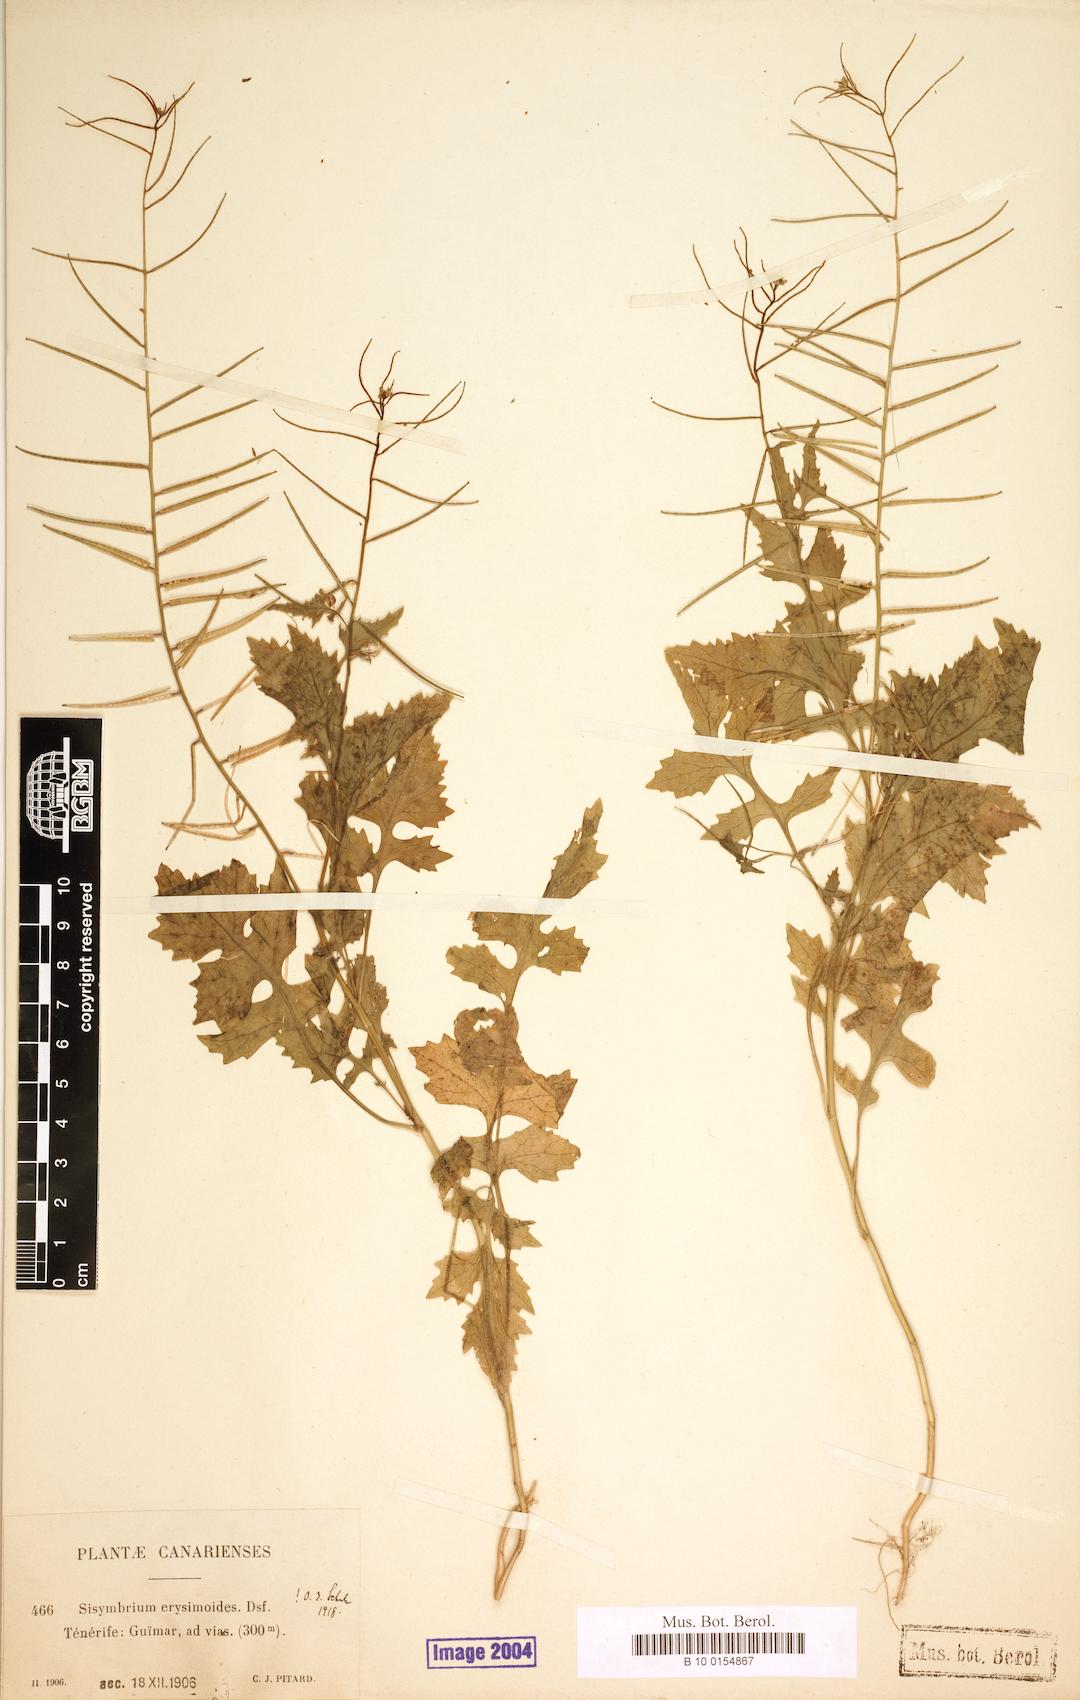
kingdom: Plantae
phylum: Tracheophyta
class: Magnoliopsida
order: Brassicales
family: Brassicaceae
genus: Sisymbrium
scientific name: Sisymbrium erysimoides
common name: French rocket
